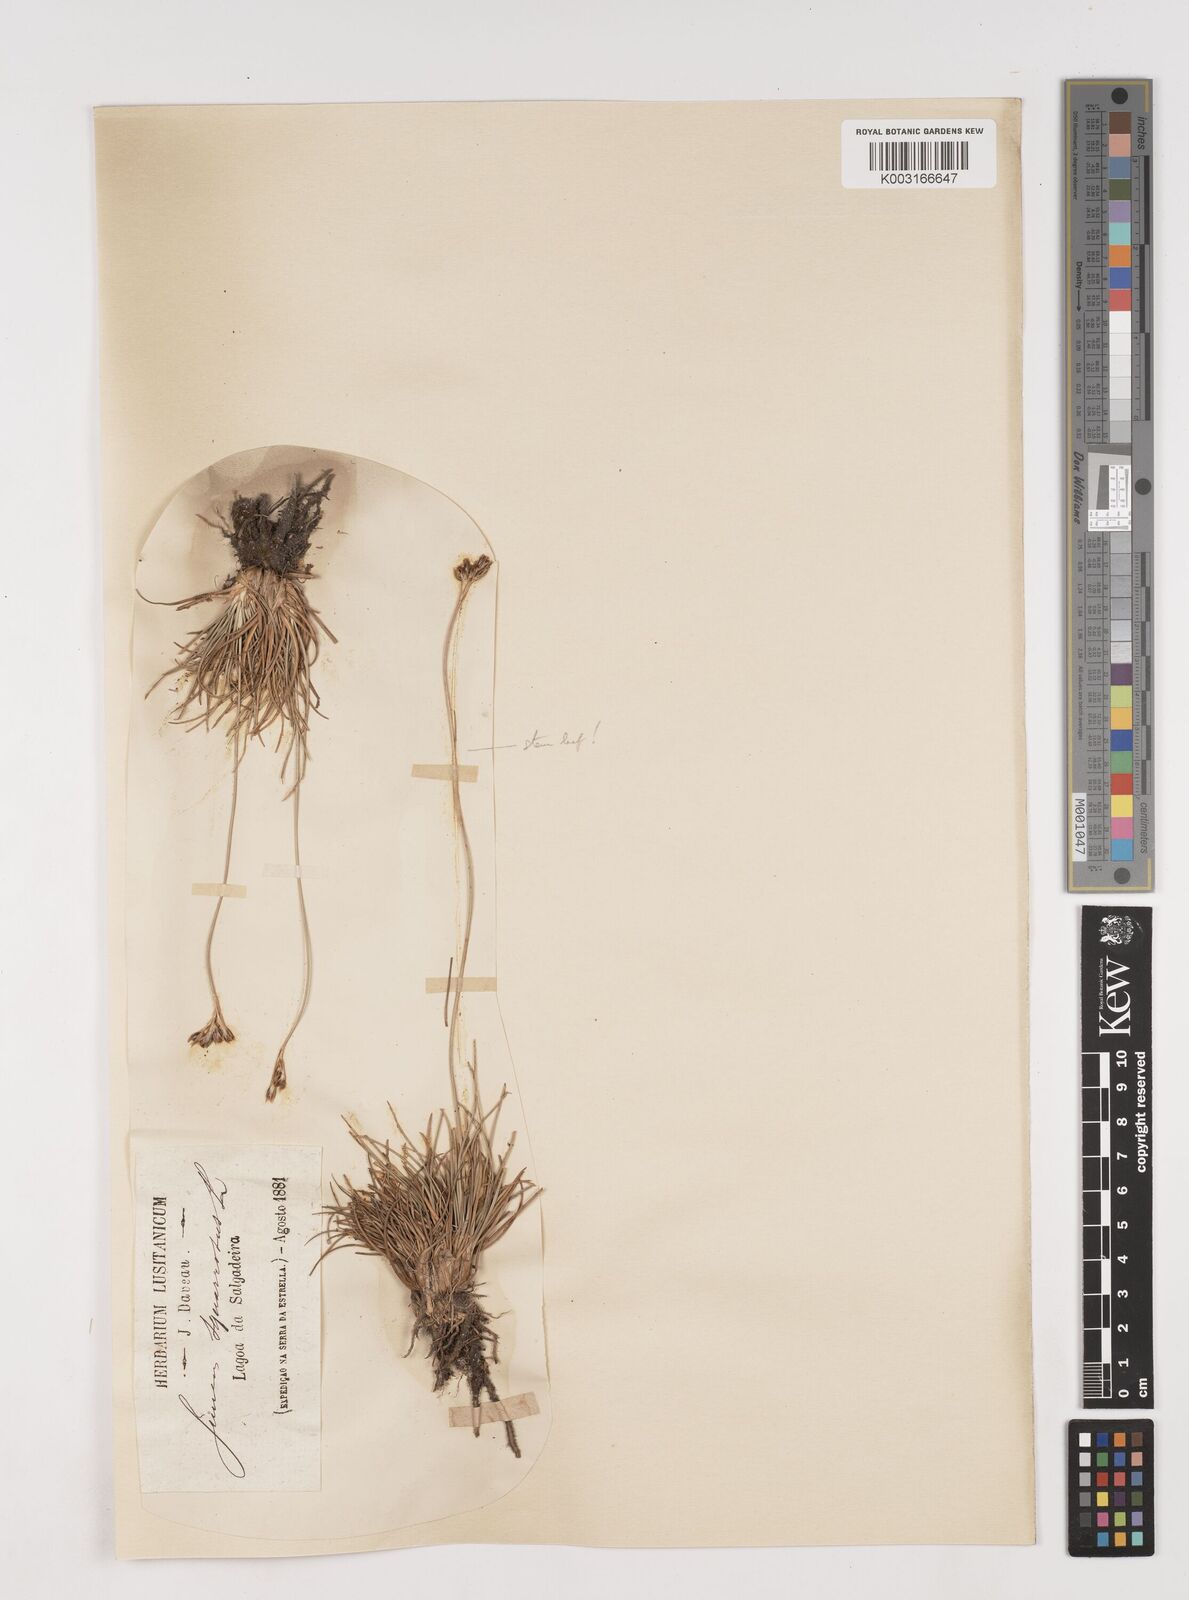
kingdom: Plantae
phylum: Tracheophyta
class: Liliopsida
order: Poales
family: Juncaceae
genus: Juncus
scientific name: Juncus squarrosus
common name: Heath rush
